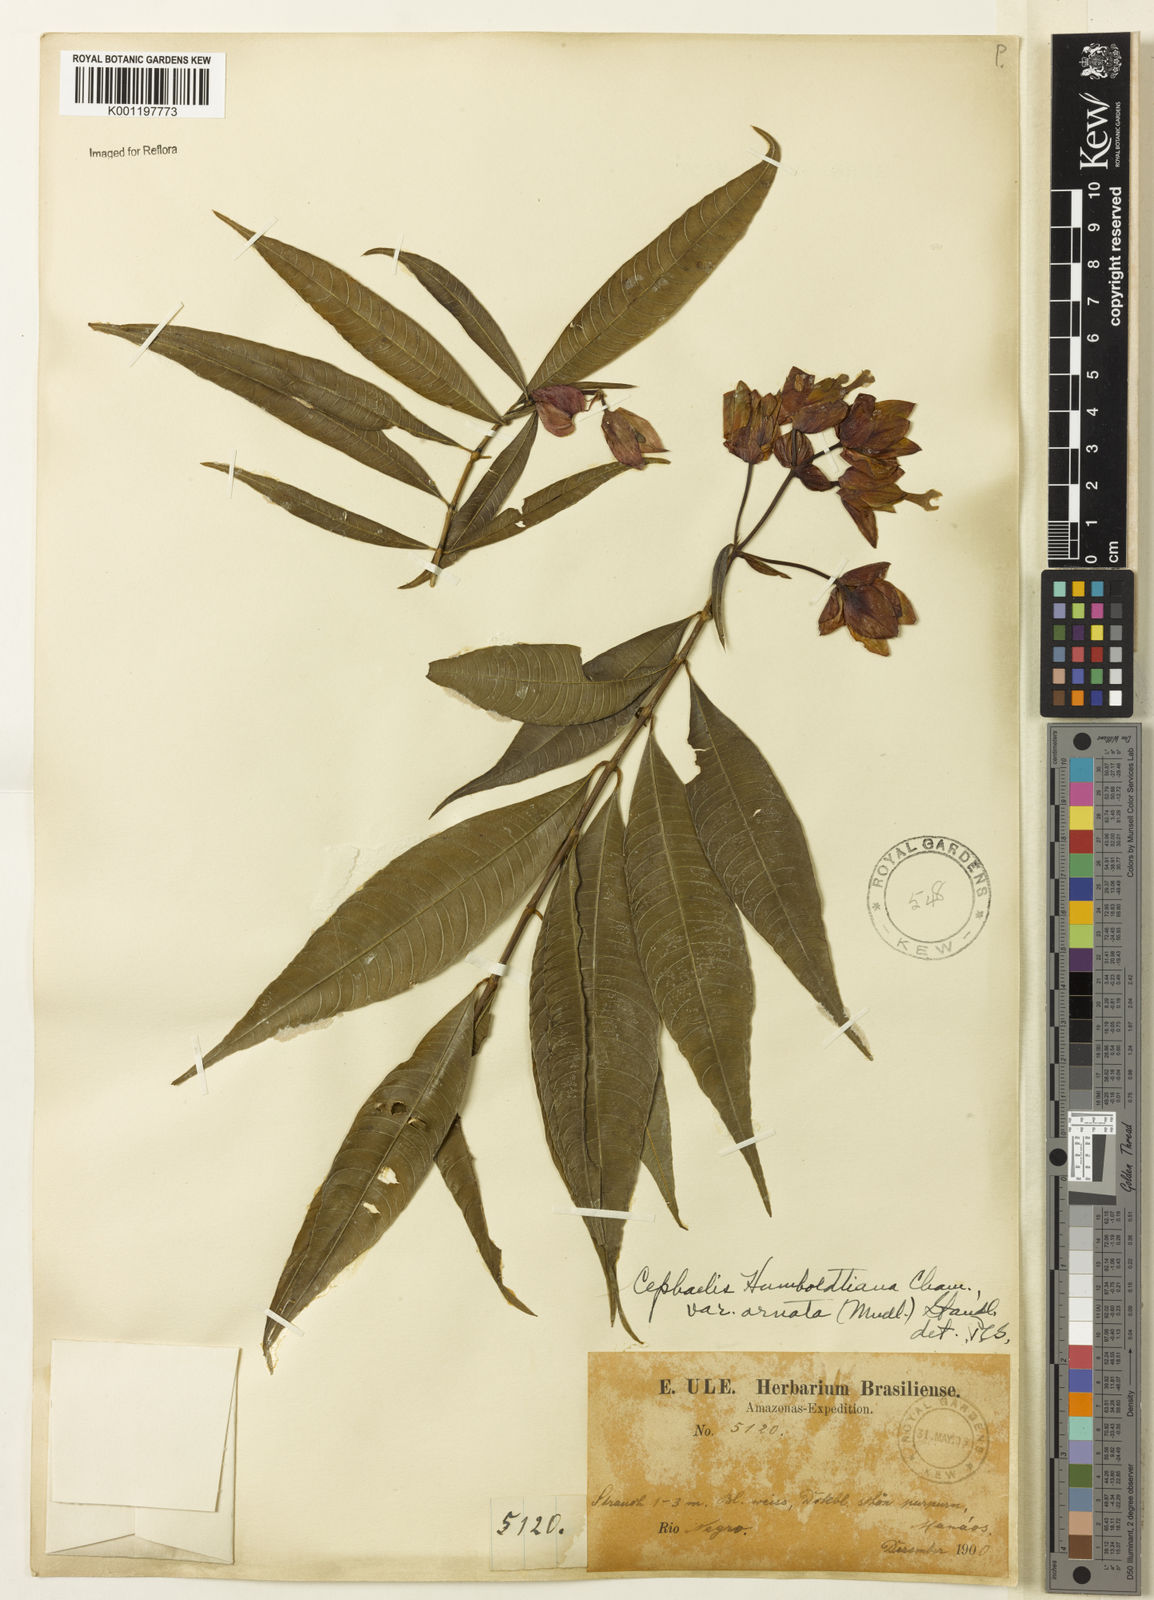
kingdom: Plantae
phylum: Tracheophyta
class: Magnoliopsida
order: Gentianales
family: Rubiaceae
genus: Psychotria
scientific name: Psychotria
